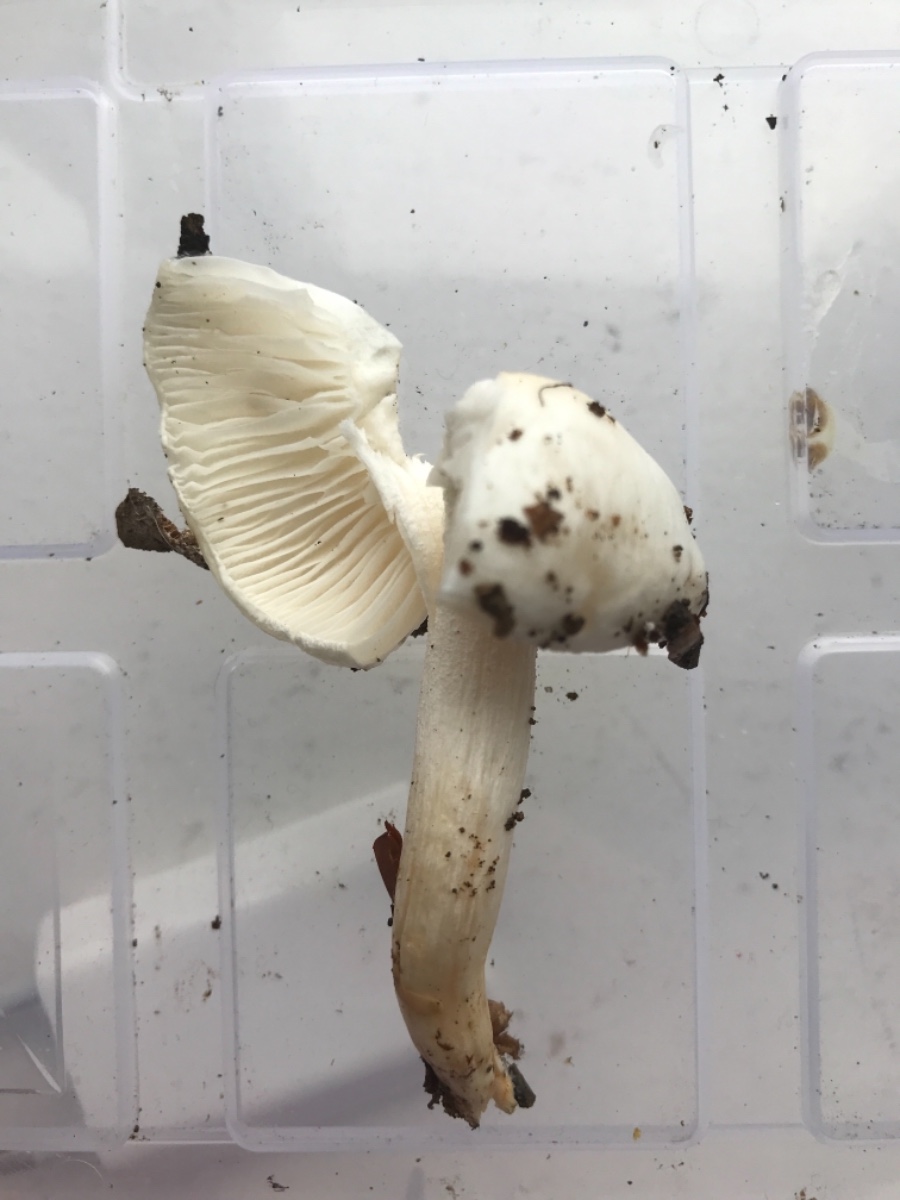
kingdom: Fungi
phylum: Basidiomycota
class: Agaricomycetes
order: Agaricales
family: Hygrophoraceae
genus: Hygrophorus
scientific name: Hygrophorus eburneus
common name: elfenbens-sneglehat
